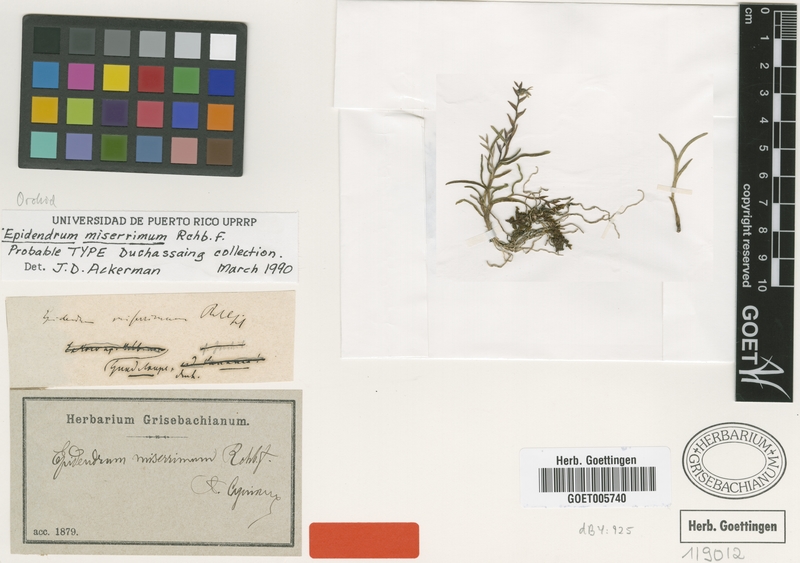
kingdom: Plantae
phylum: Tracheophyta
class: Liliopsida
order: Asparagales
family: Orchidaceae
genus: Epidendrum
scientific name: Epidendrum miserrimum
